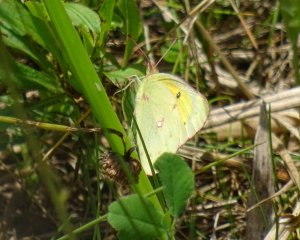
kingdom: Animalia
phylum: Arthropoda
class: Insecta
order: Lepidoptera
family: Pieridae
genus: Colias
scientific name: Colias eurytheme
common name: Orange Sulphur
